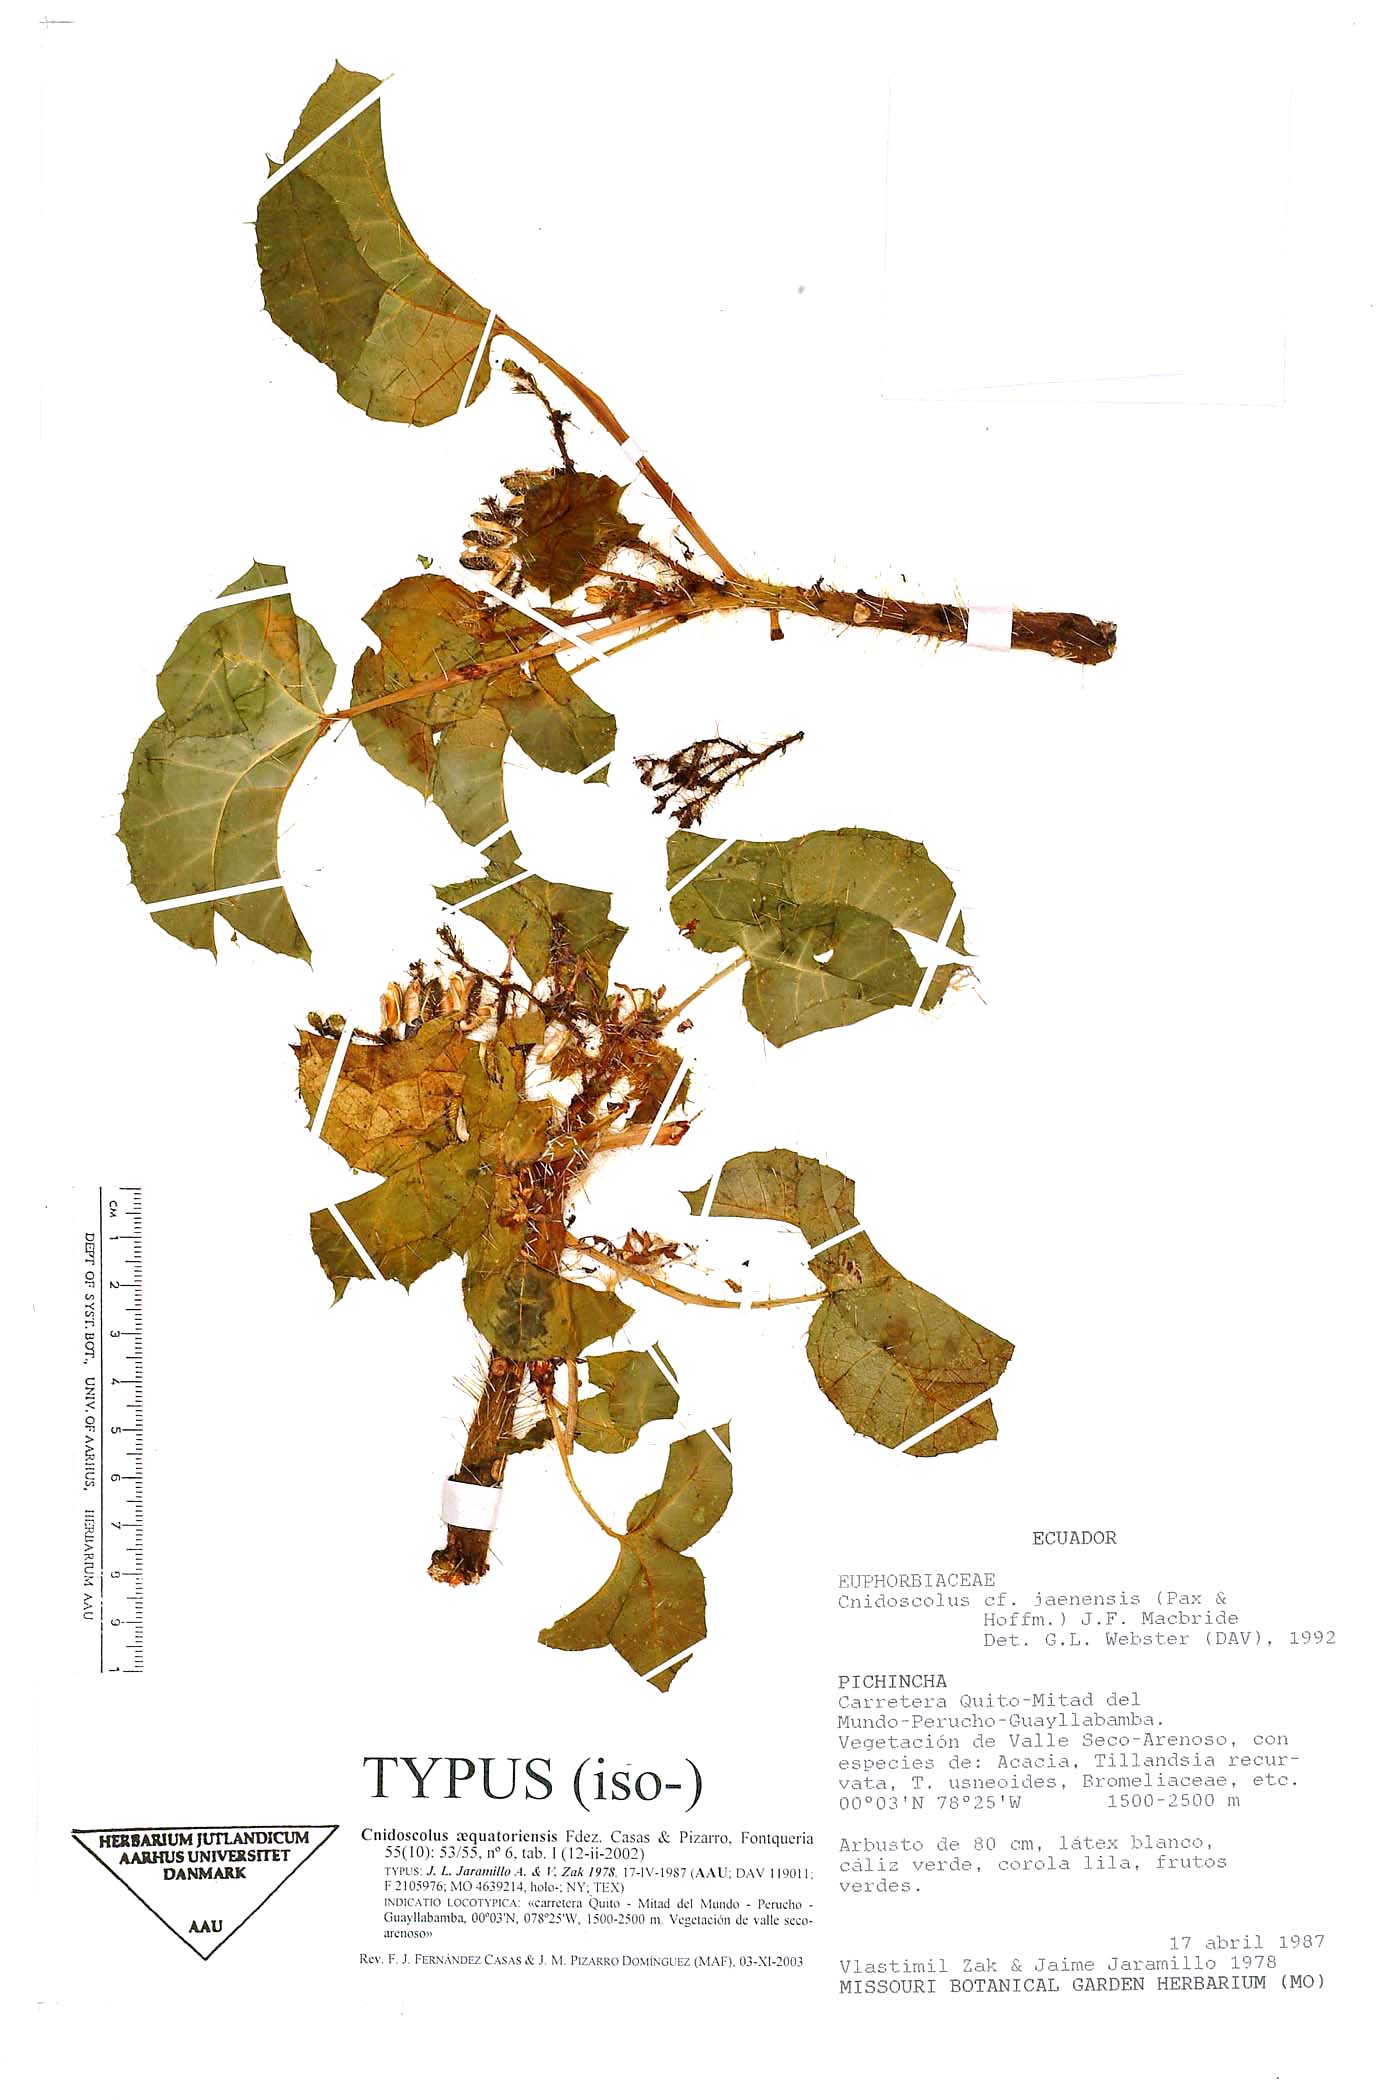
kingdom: Plantae
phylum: Tracheophyta
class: Magnoliopsida
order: Malpighiales
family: Euphorbiaceae
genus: Cnidoscolus
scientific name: Cnidoscolus aequatoriensis
